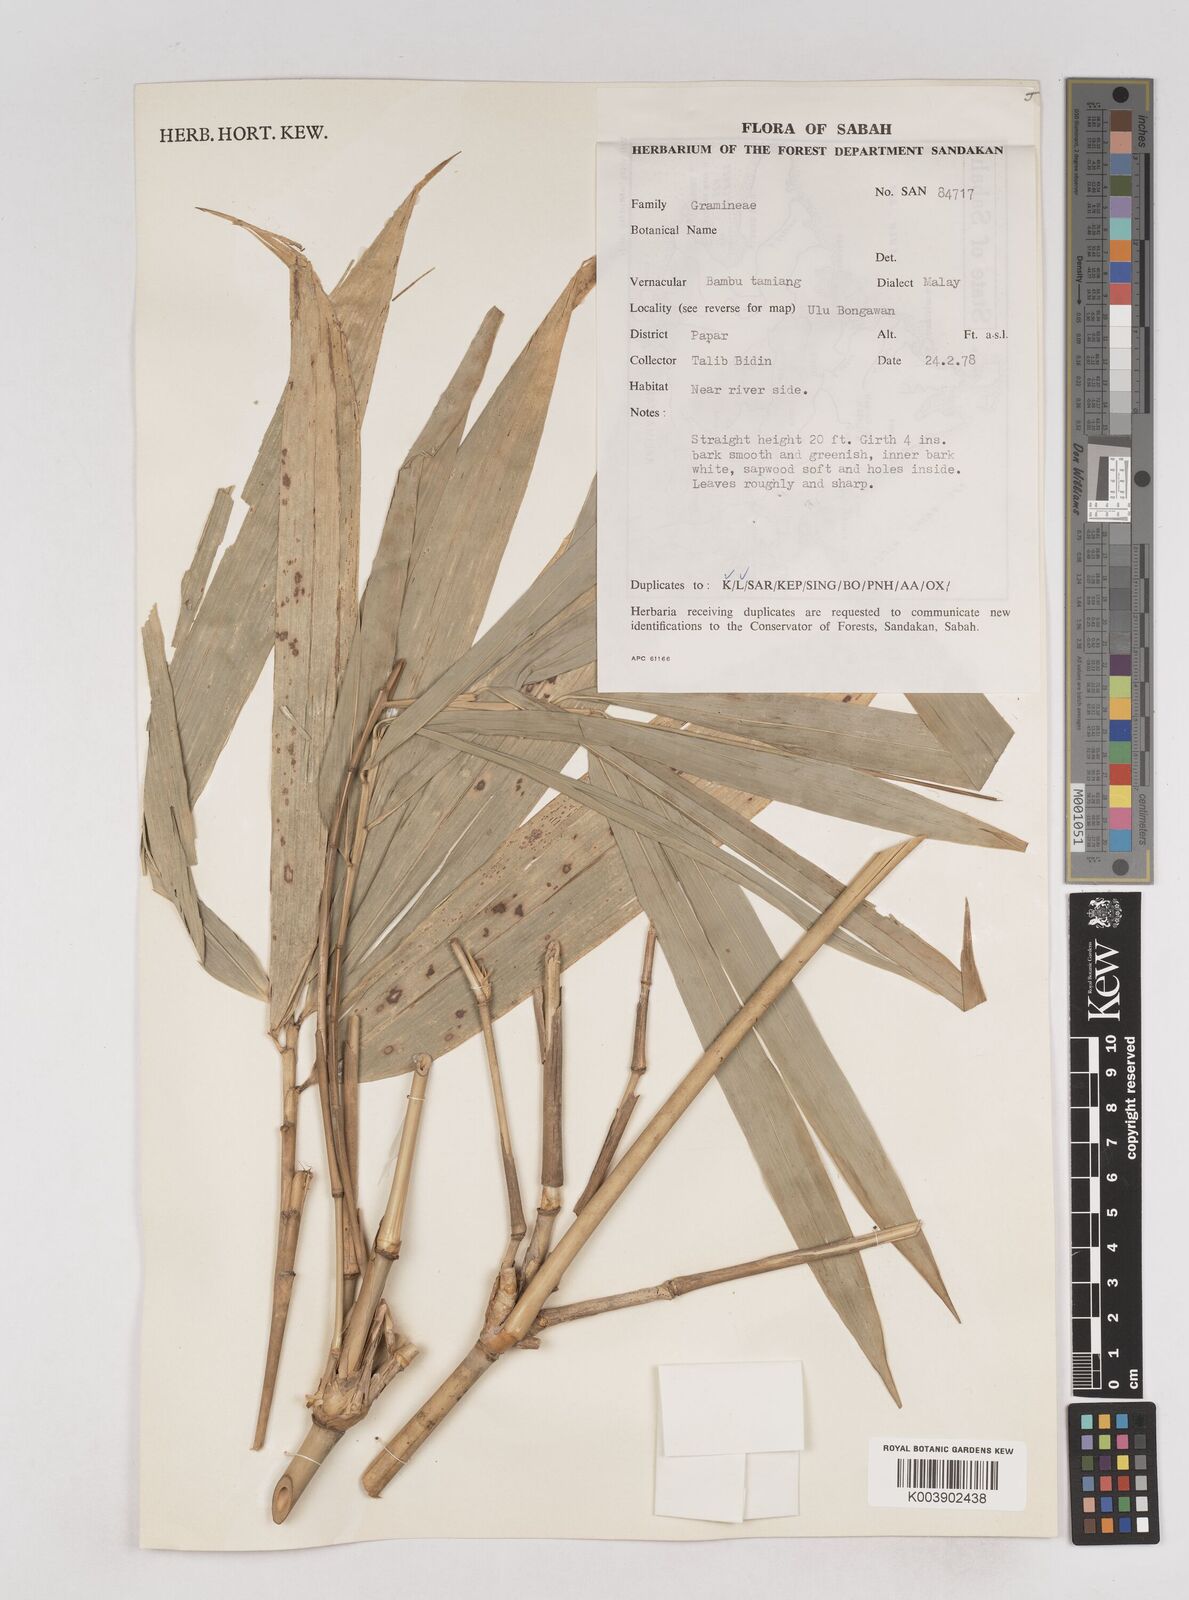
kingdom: Plantae
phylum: Tracheophyta
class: Liliopsida
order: Poales
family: Poaceae
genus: Schizostachyum
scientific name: Schizostachyum
